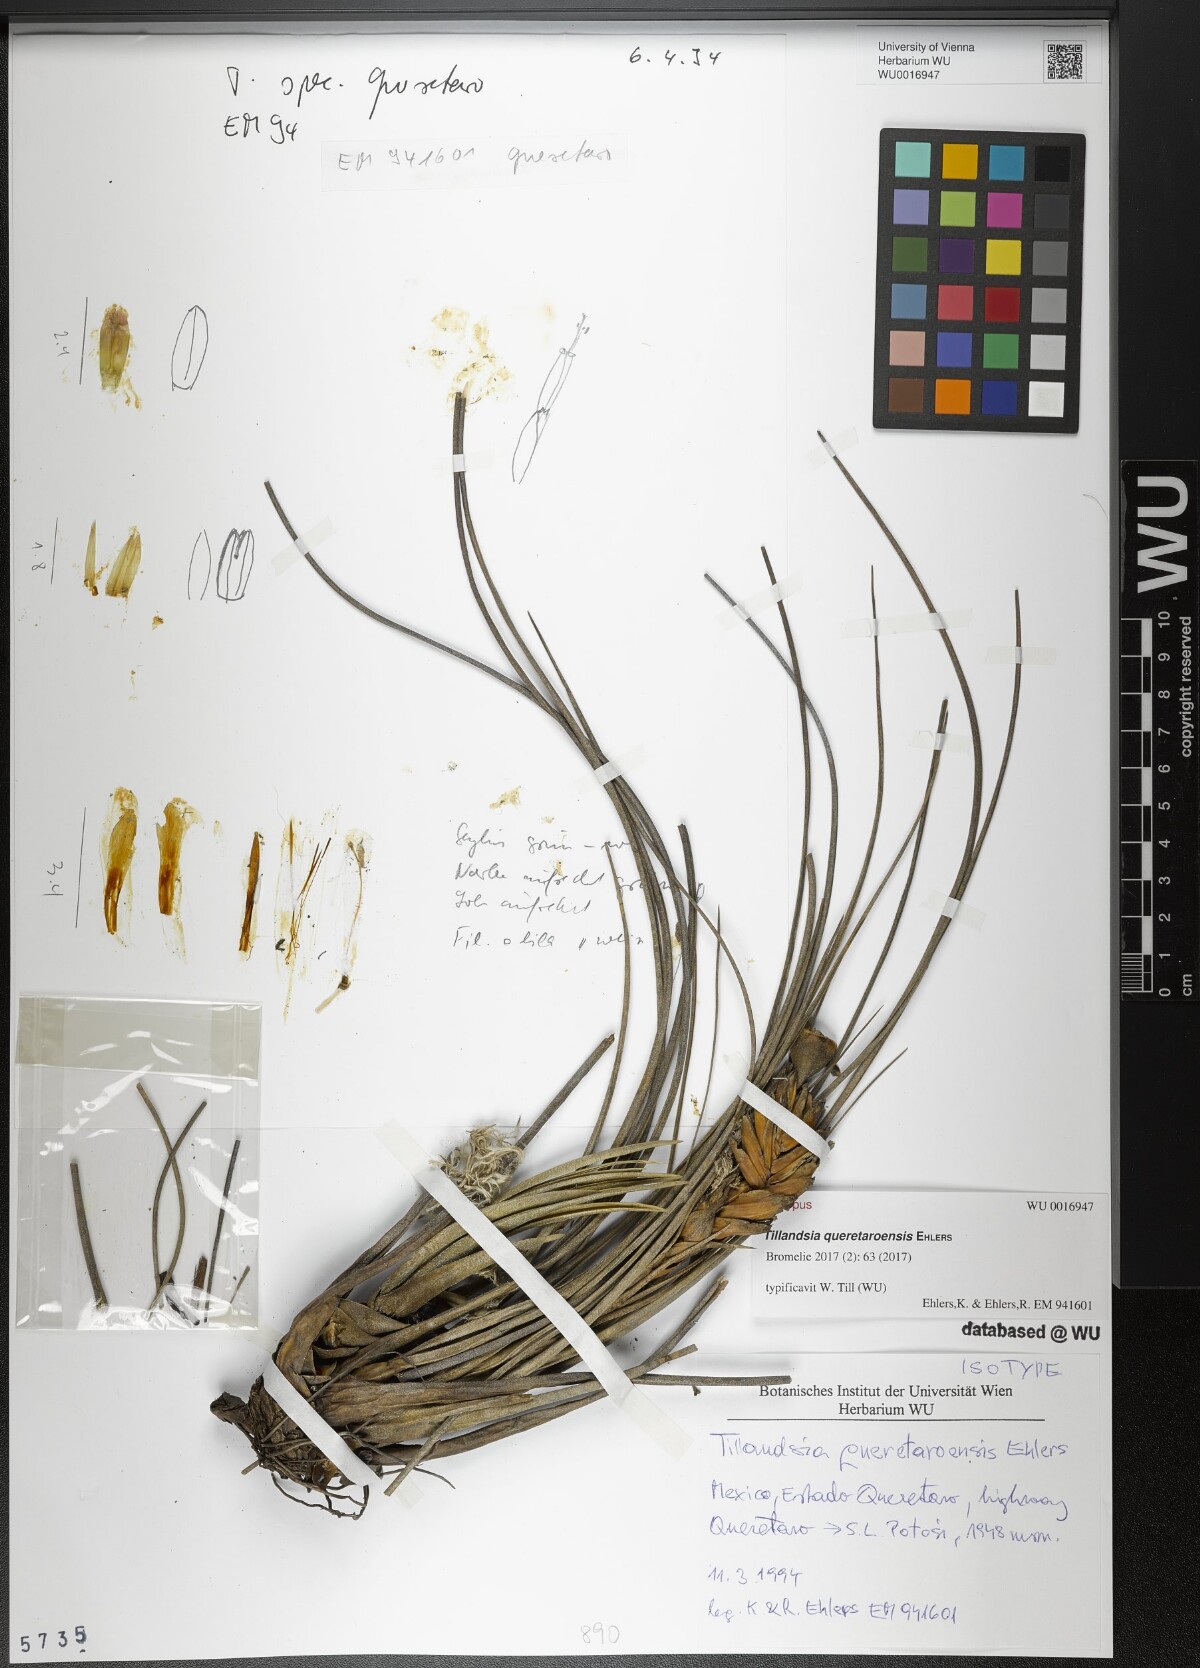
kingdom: Plantae
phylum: Tracheophyta
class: Liliopsida
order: Poales
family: Bromeliaceae
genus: Tillandsia
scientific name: Tillandsia queretaroensis
